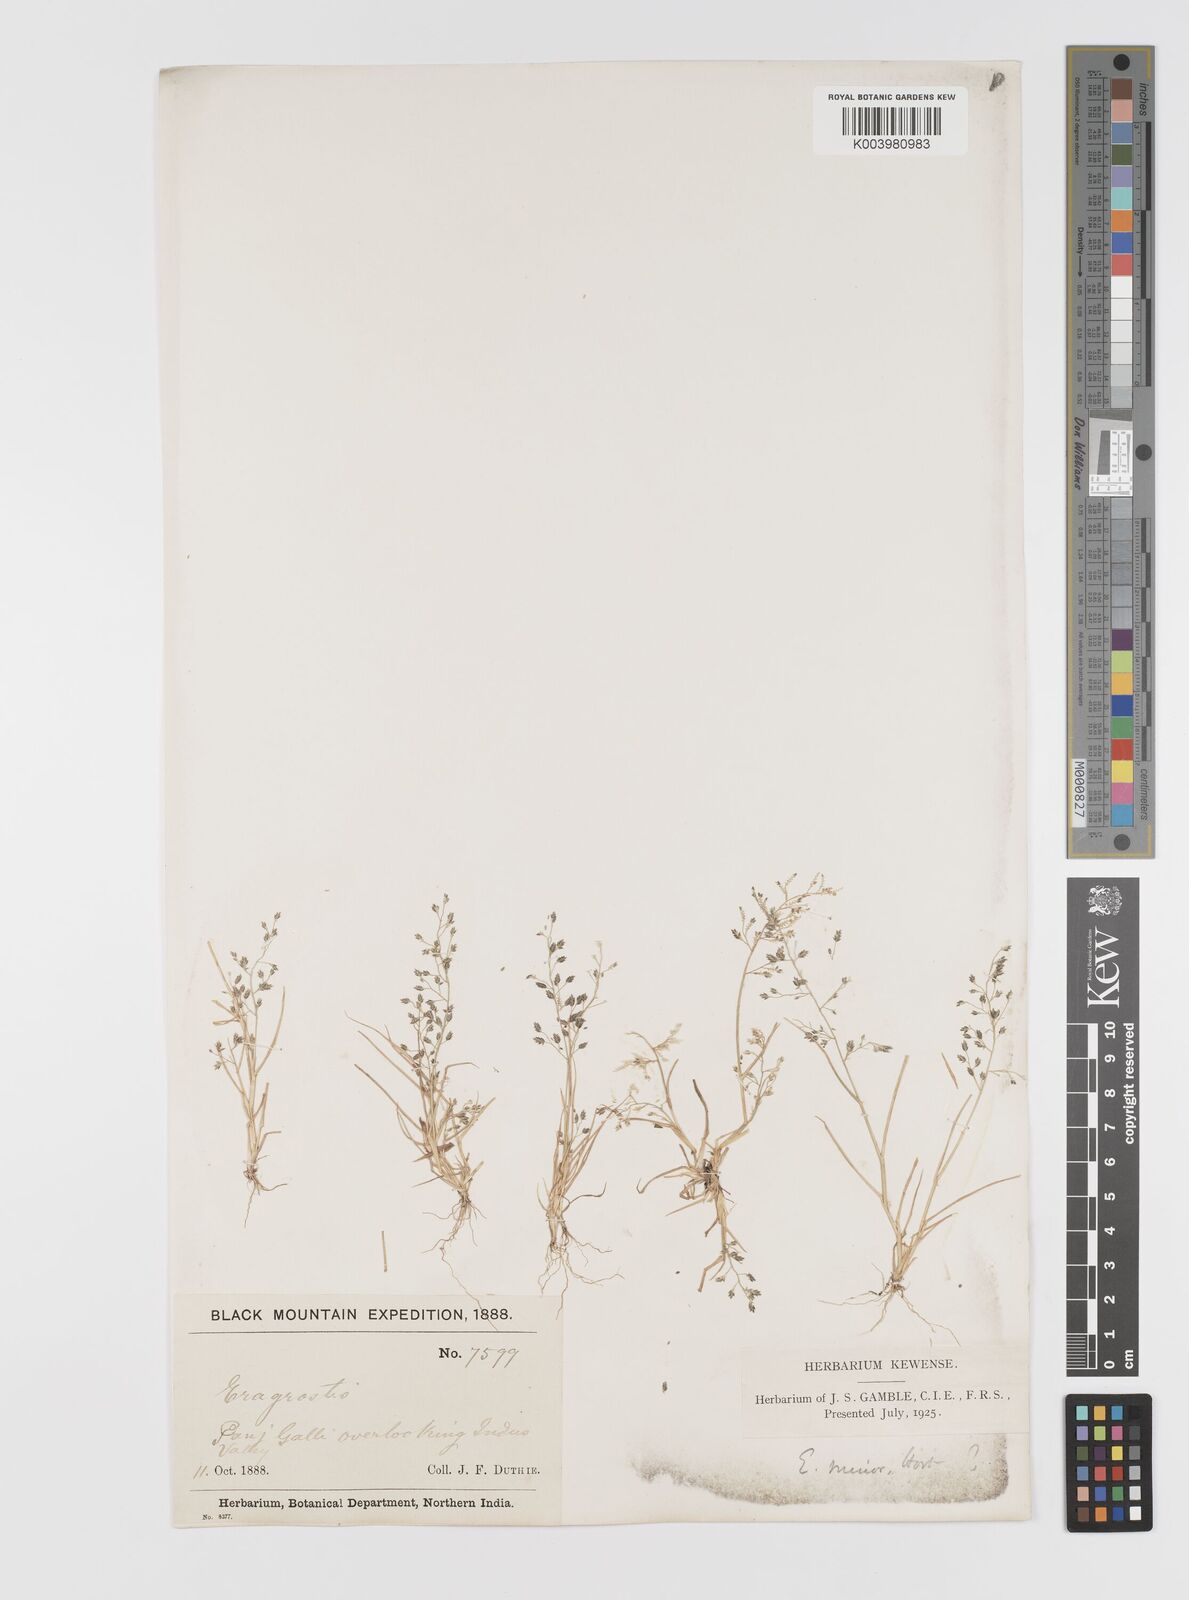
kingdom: Plantae
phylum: Tracheophyta
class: Liliopsida
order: Poales
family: Poaceae
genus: Eragrostis
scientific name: Eragrostis minor
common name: Small love-grass
